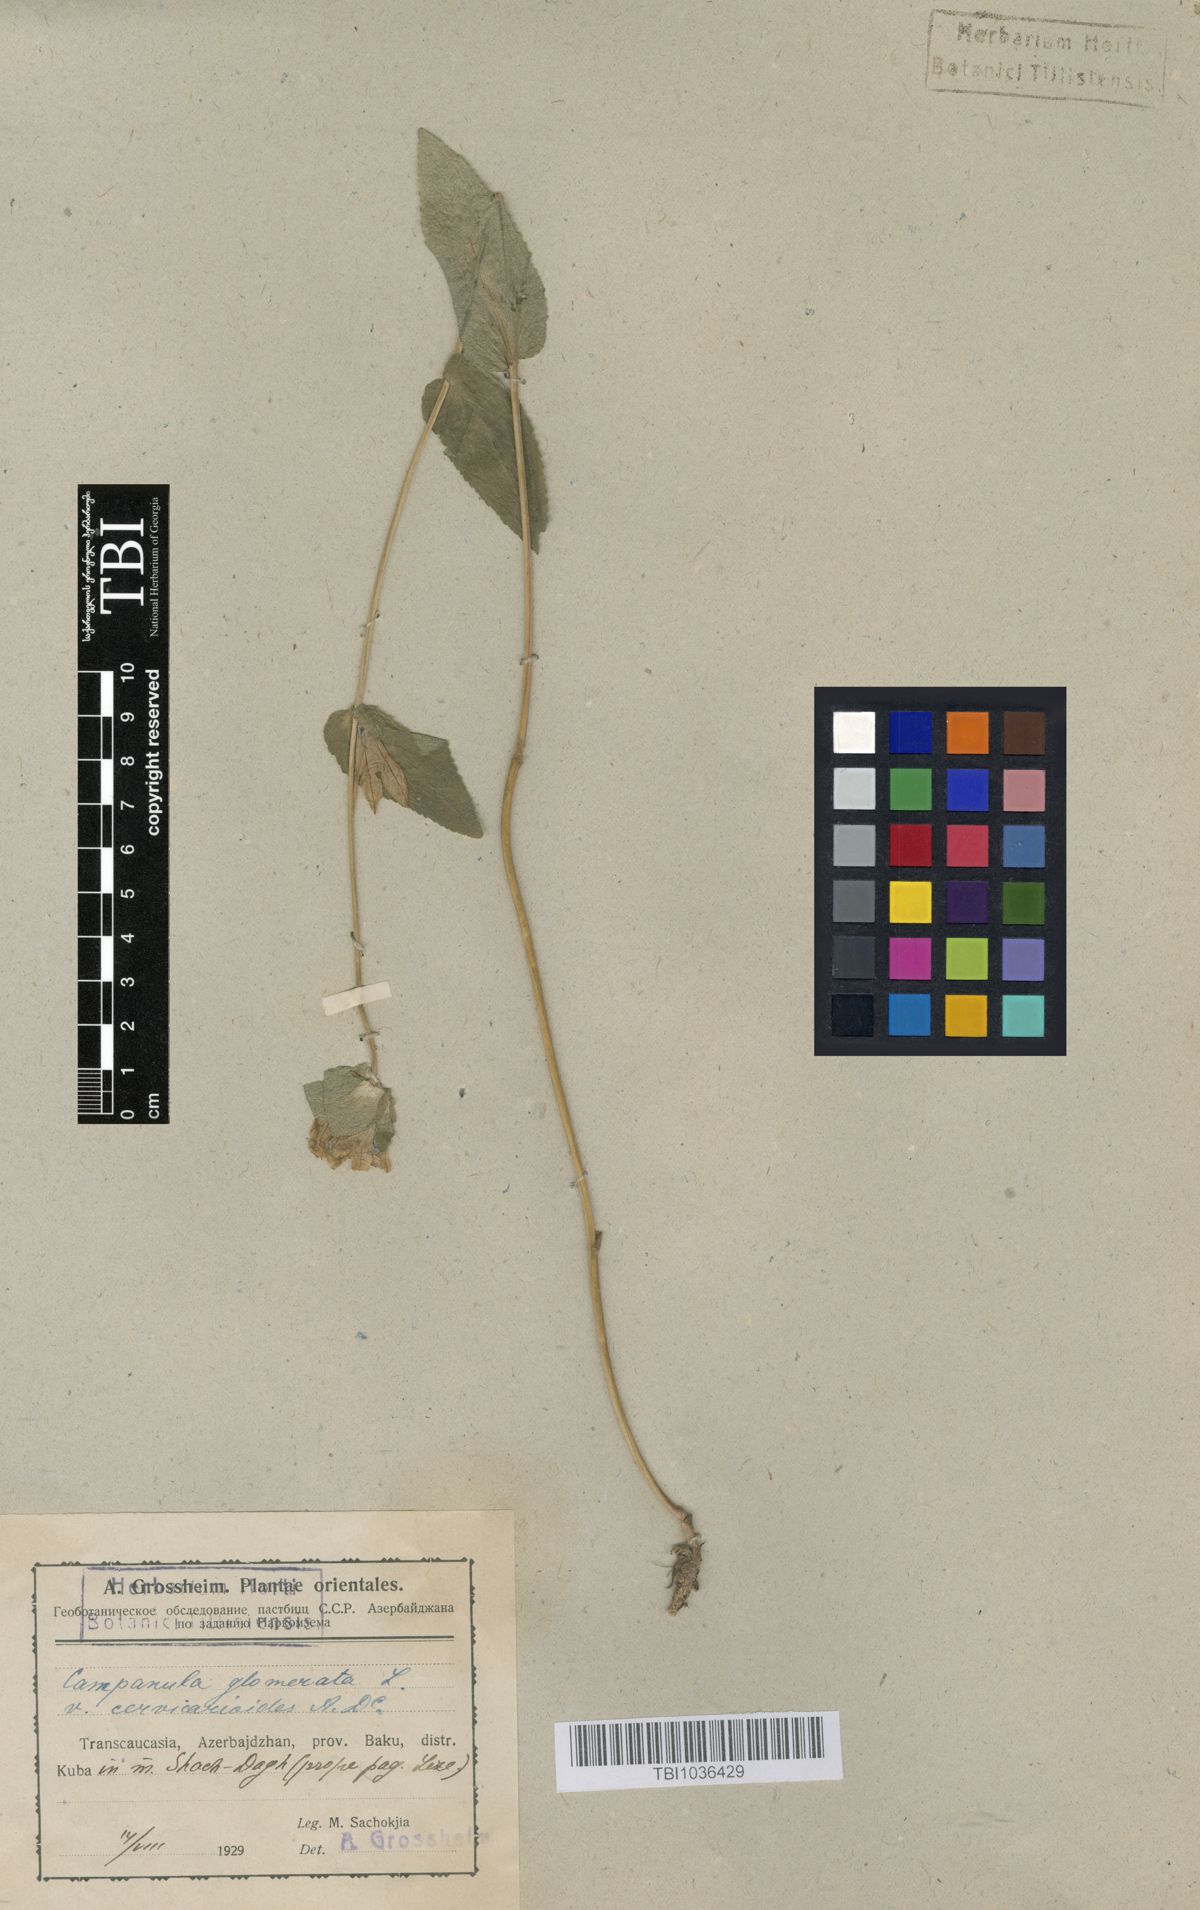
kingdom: Plantae
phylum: Tracheophyta
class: Magnoliopsida
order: Asterales
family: Campanulaceae
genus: Campanula
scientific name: Campanula glomerata
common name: Clustered bellflower
